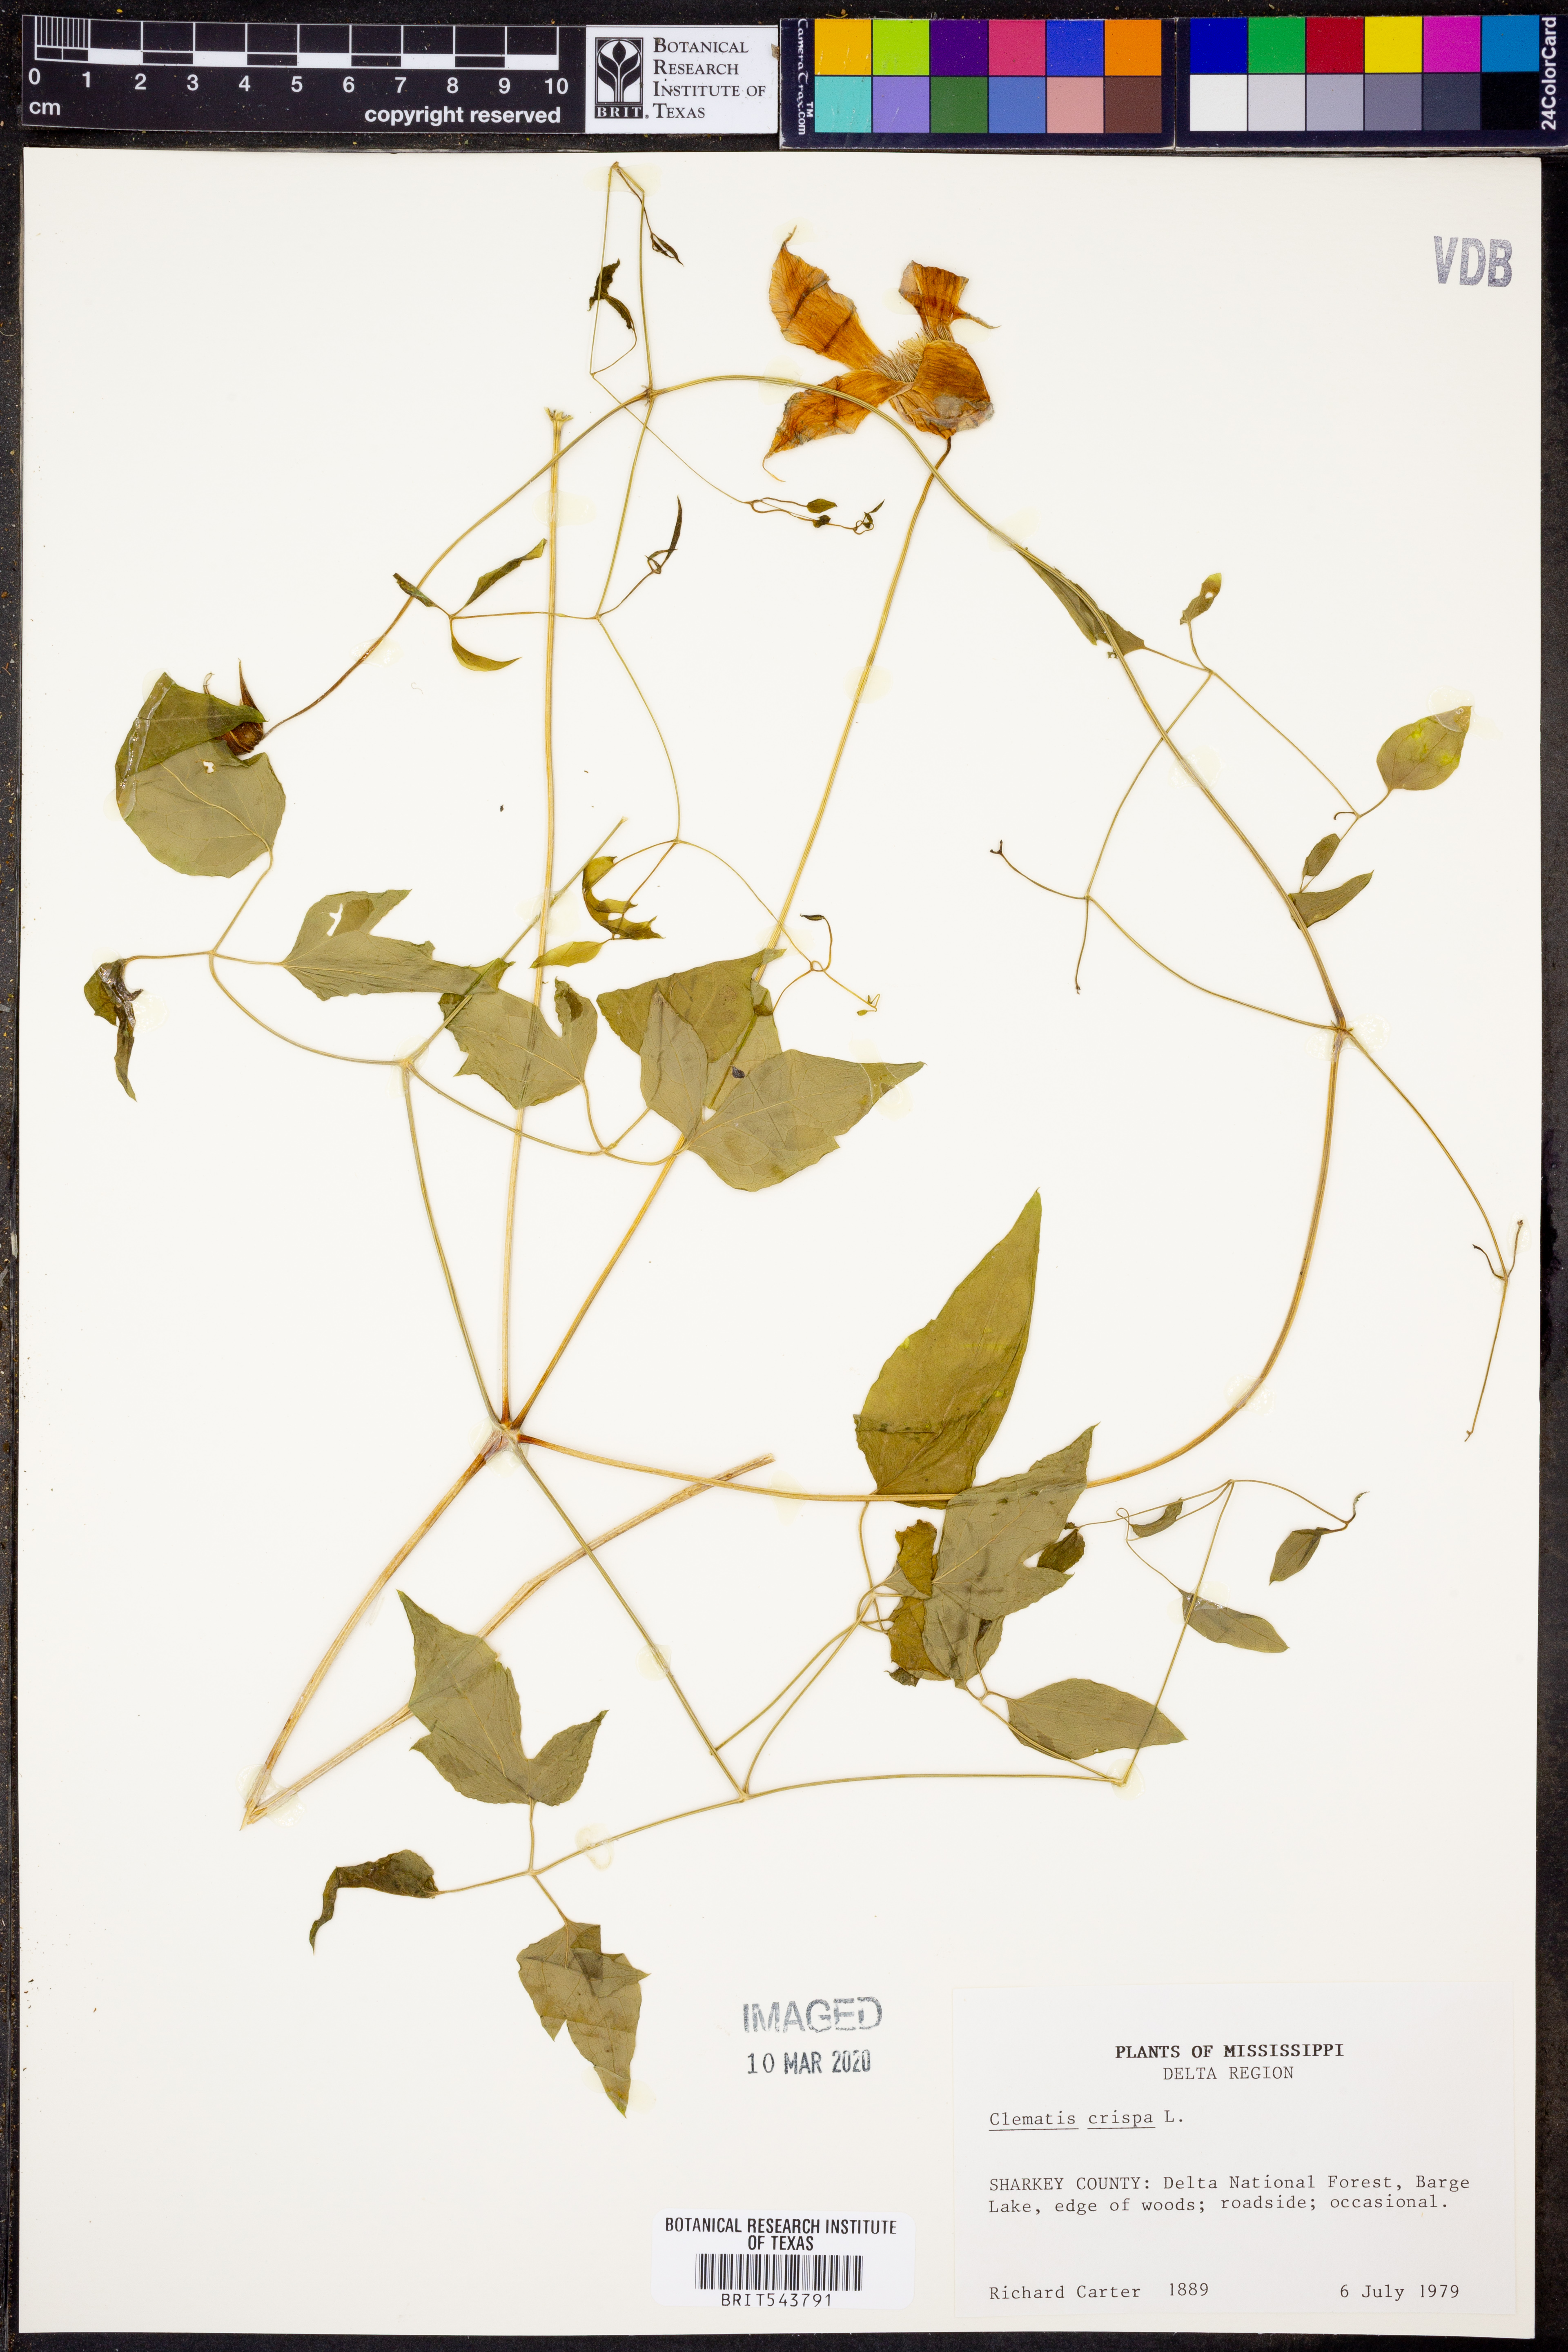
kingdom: Plantae
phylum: Tracheophyta
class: Magnoliopsida
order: Ranunculales
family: Ranunculaceae
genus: Clematis
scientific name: Clematis crispa
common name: Curly clematis
